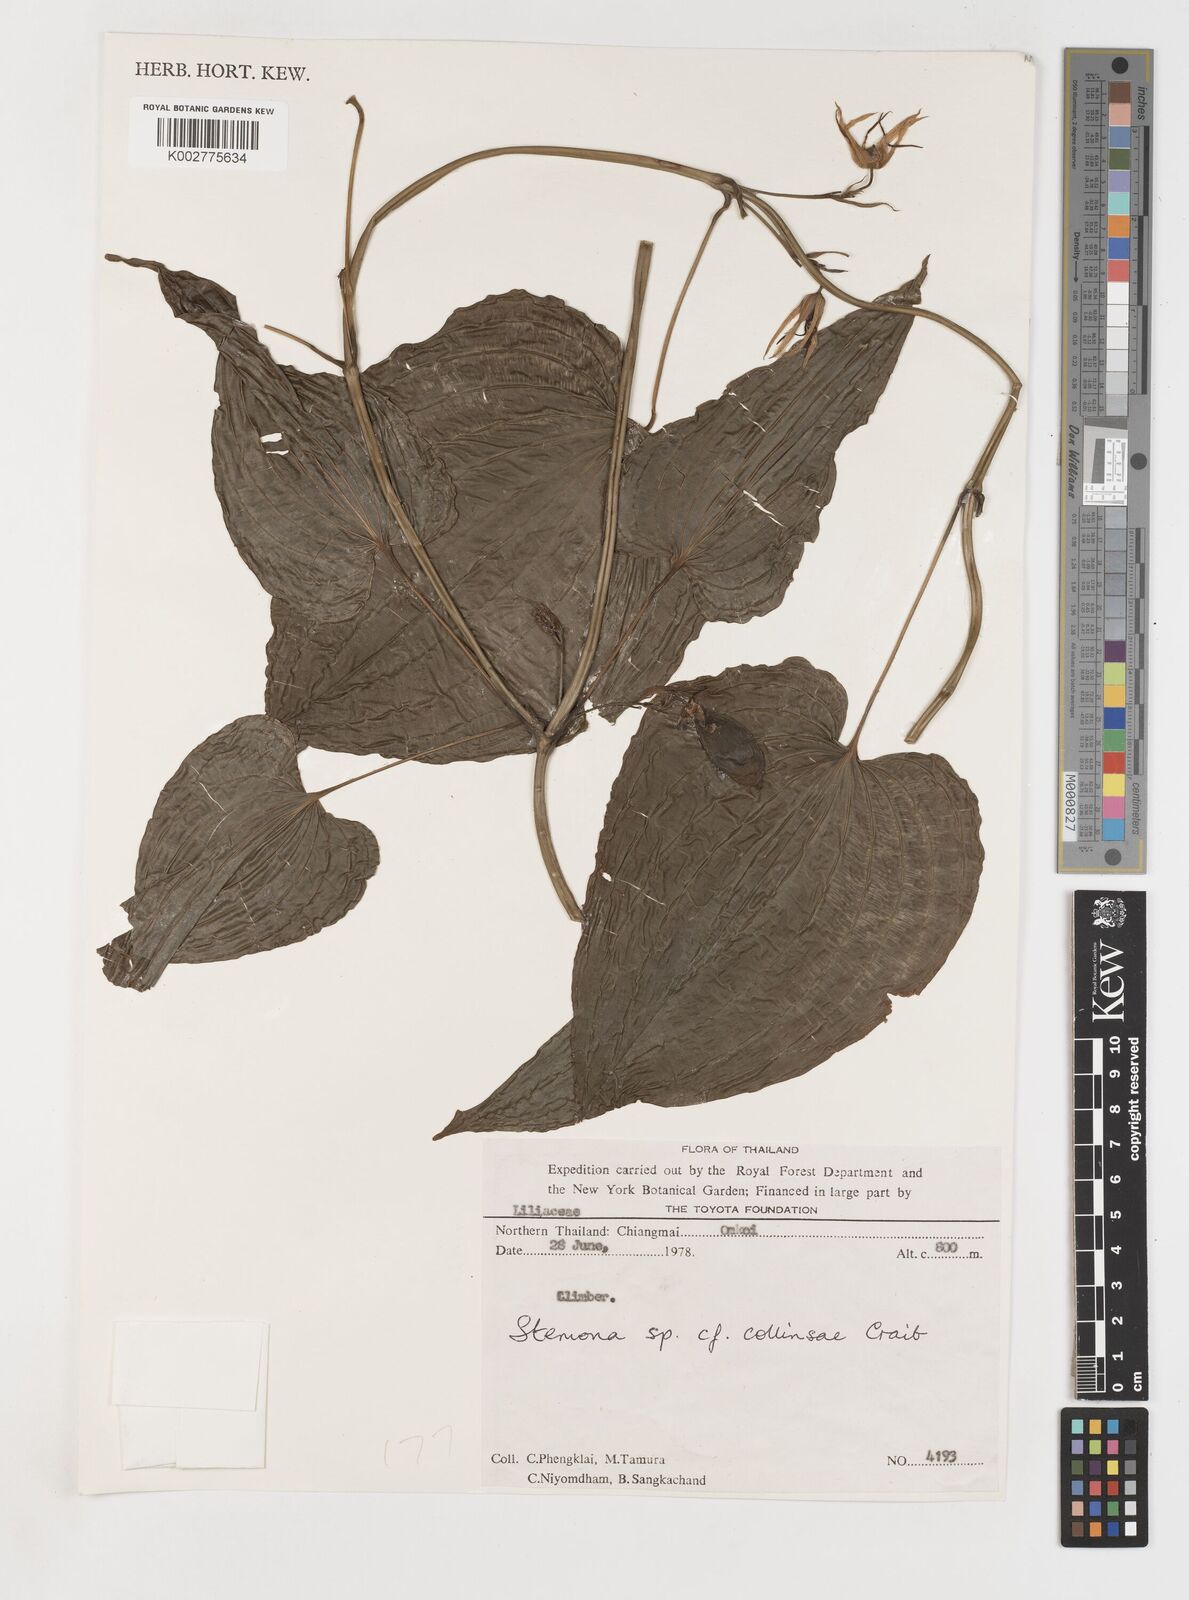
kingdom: Plantae
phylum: Tracheophyta
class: Liliopsida
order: Pandanales
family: Stemonaceae
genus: Stemona
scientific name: Stemona collinsiae
